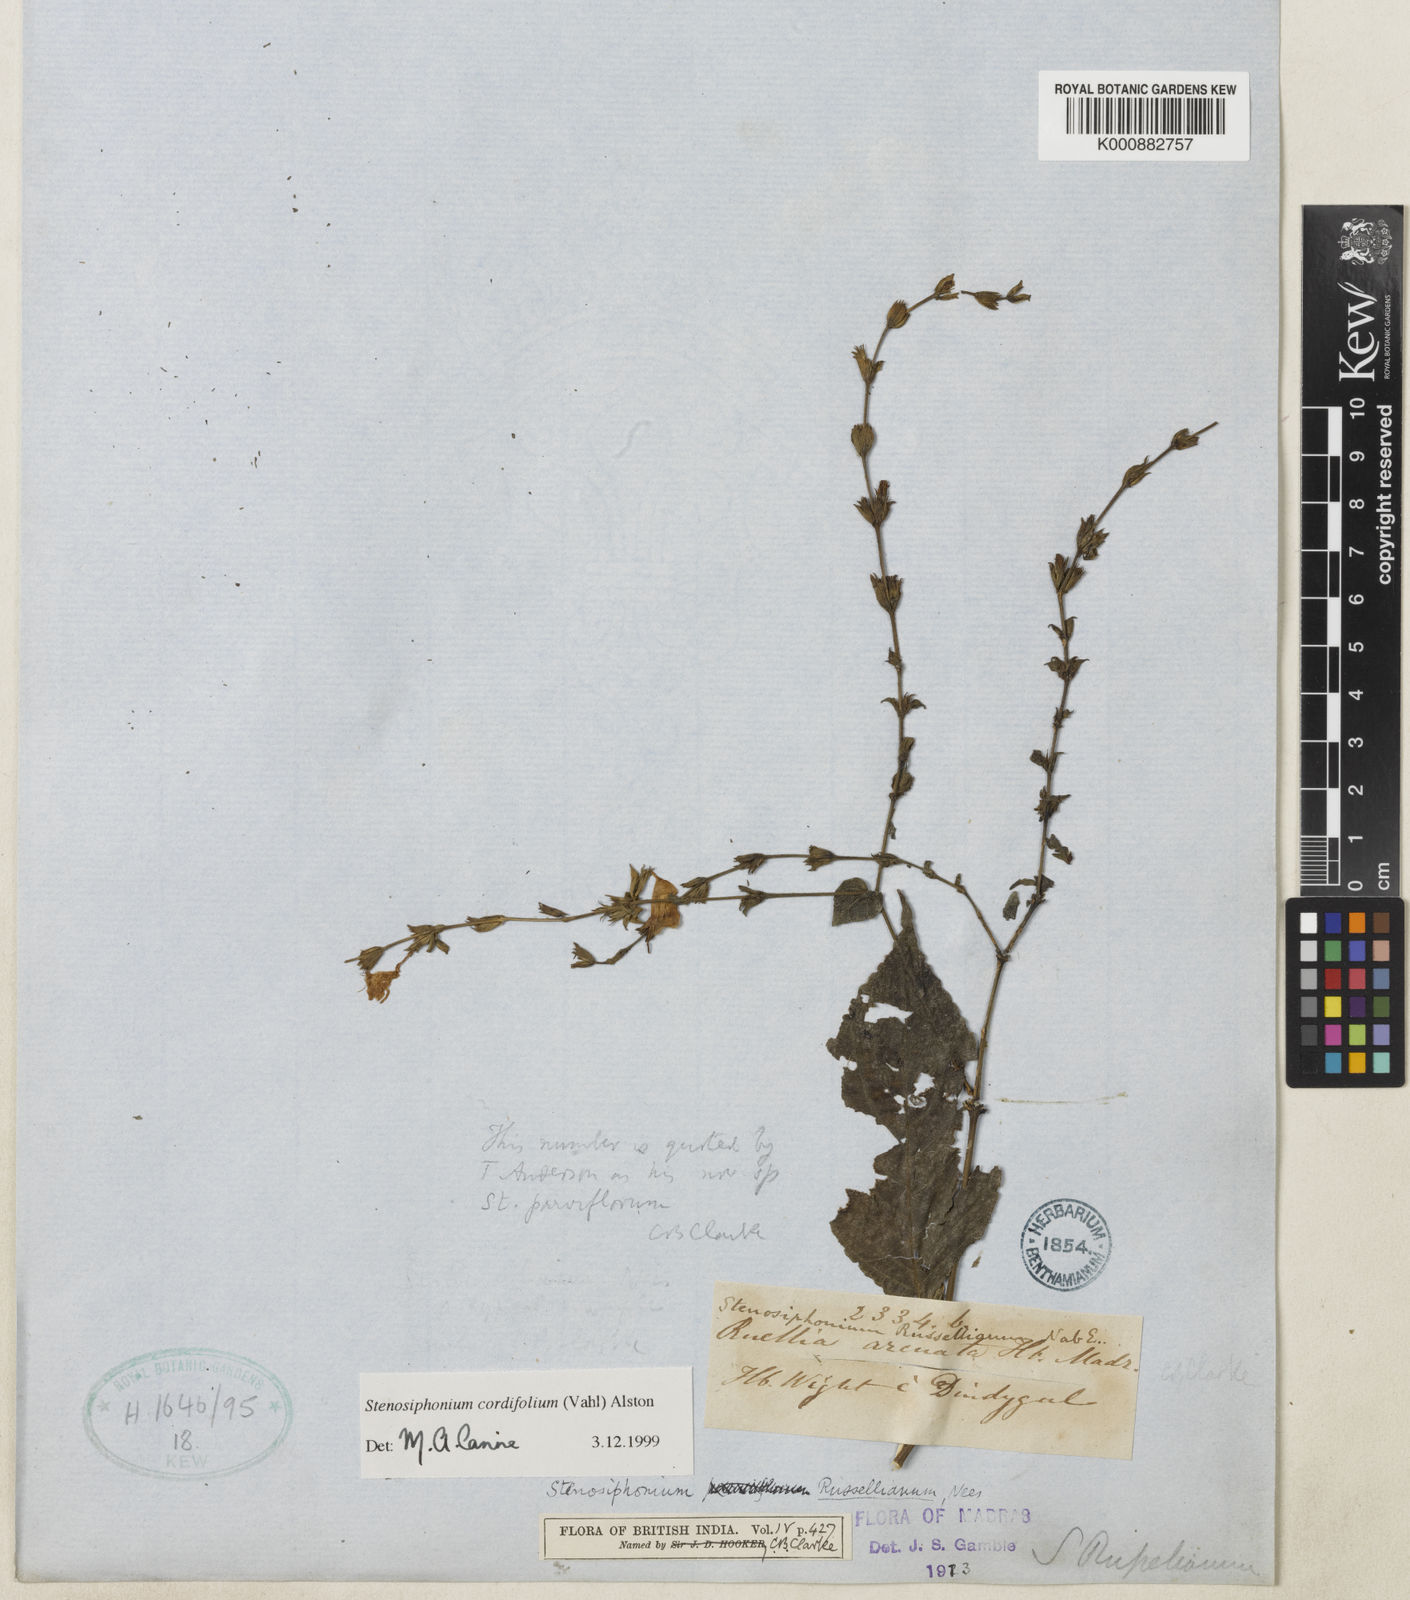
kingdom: Plantae
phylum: Tracheophyta
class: Magnoliopsida
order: Lamiales
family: Acanthaceae
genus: Strobilanthes
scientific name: Strobilanthes cordifolia
